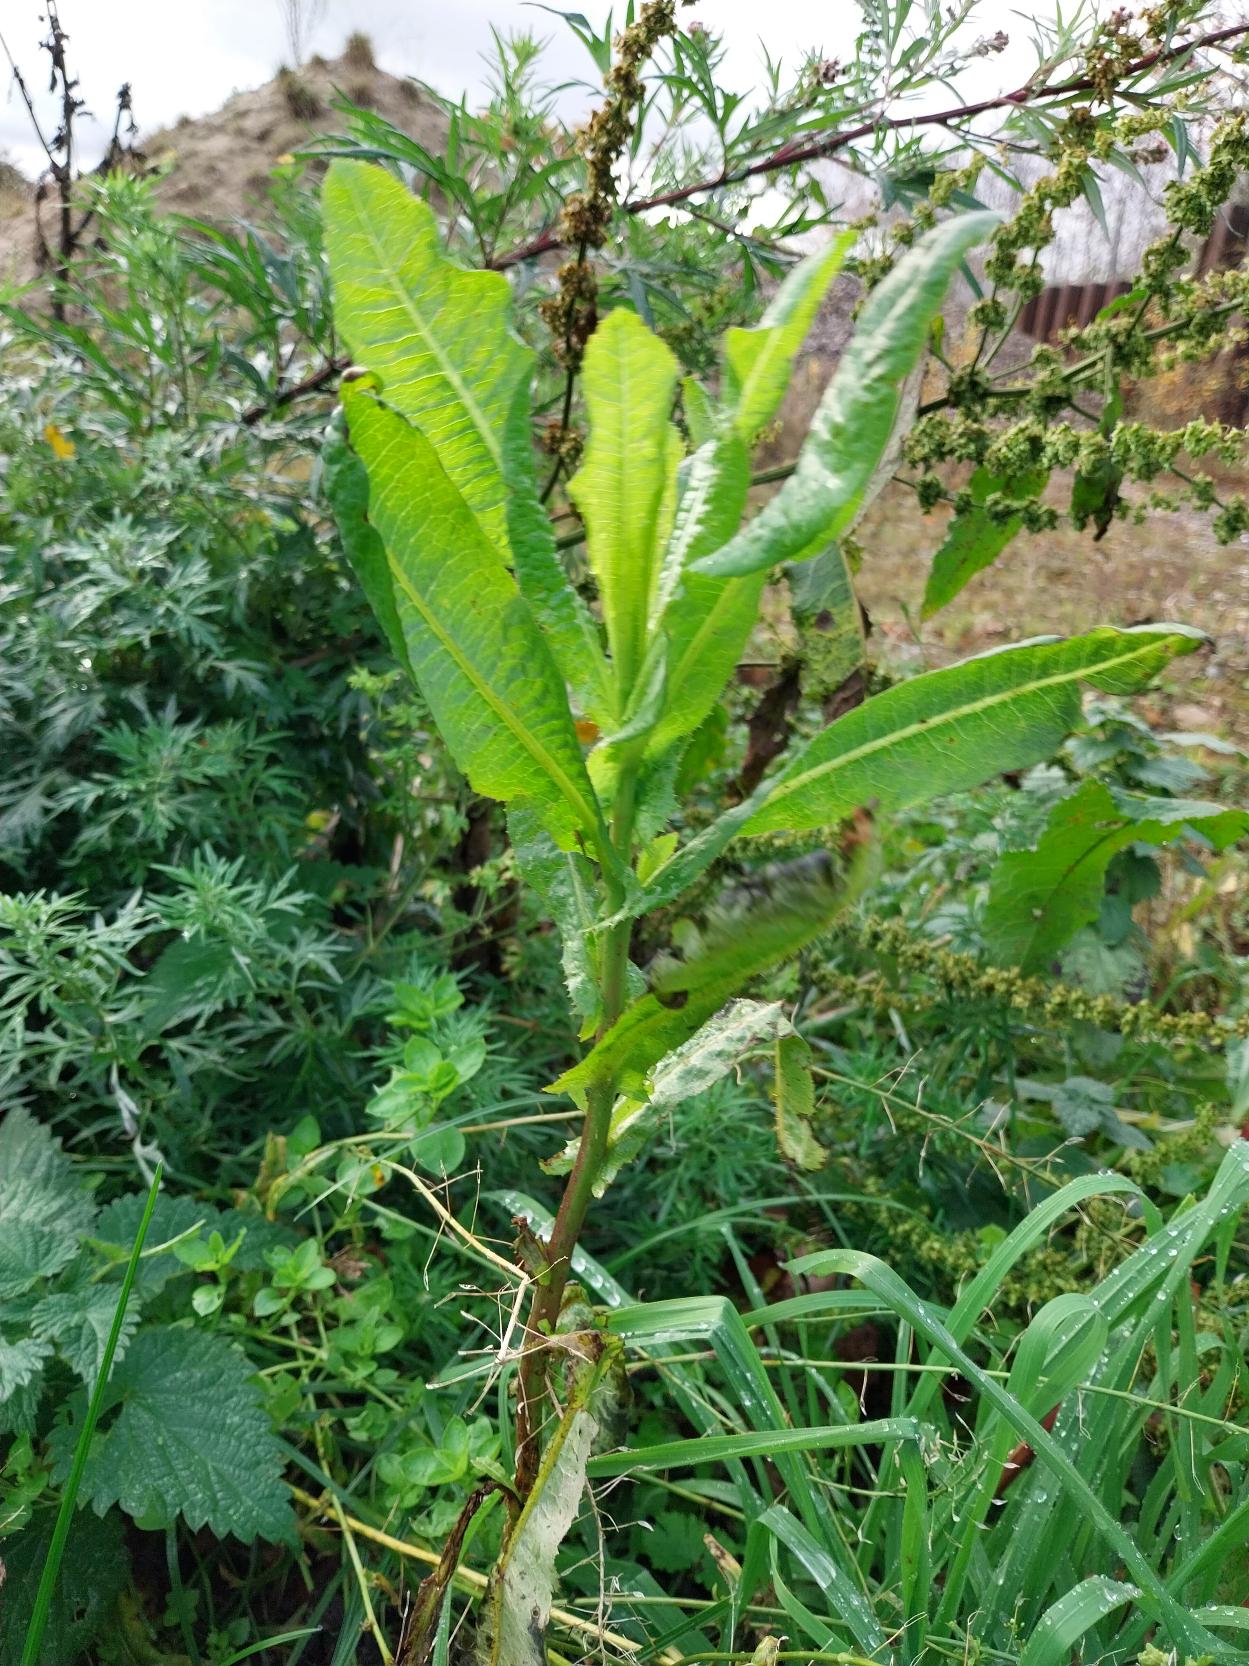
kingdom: Plantae
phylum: Tracheophyta
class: Magnoliopsida
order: Asterales
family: Asteraceae
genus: Lactuca
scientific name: Lactuca serriola
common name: Tornet salat
